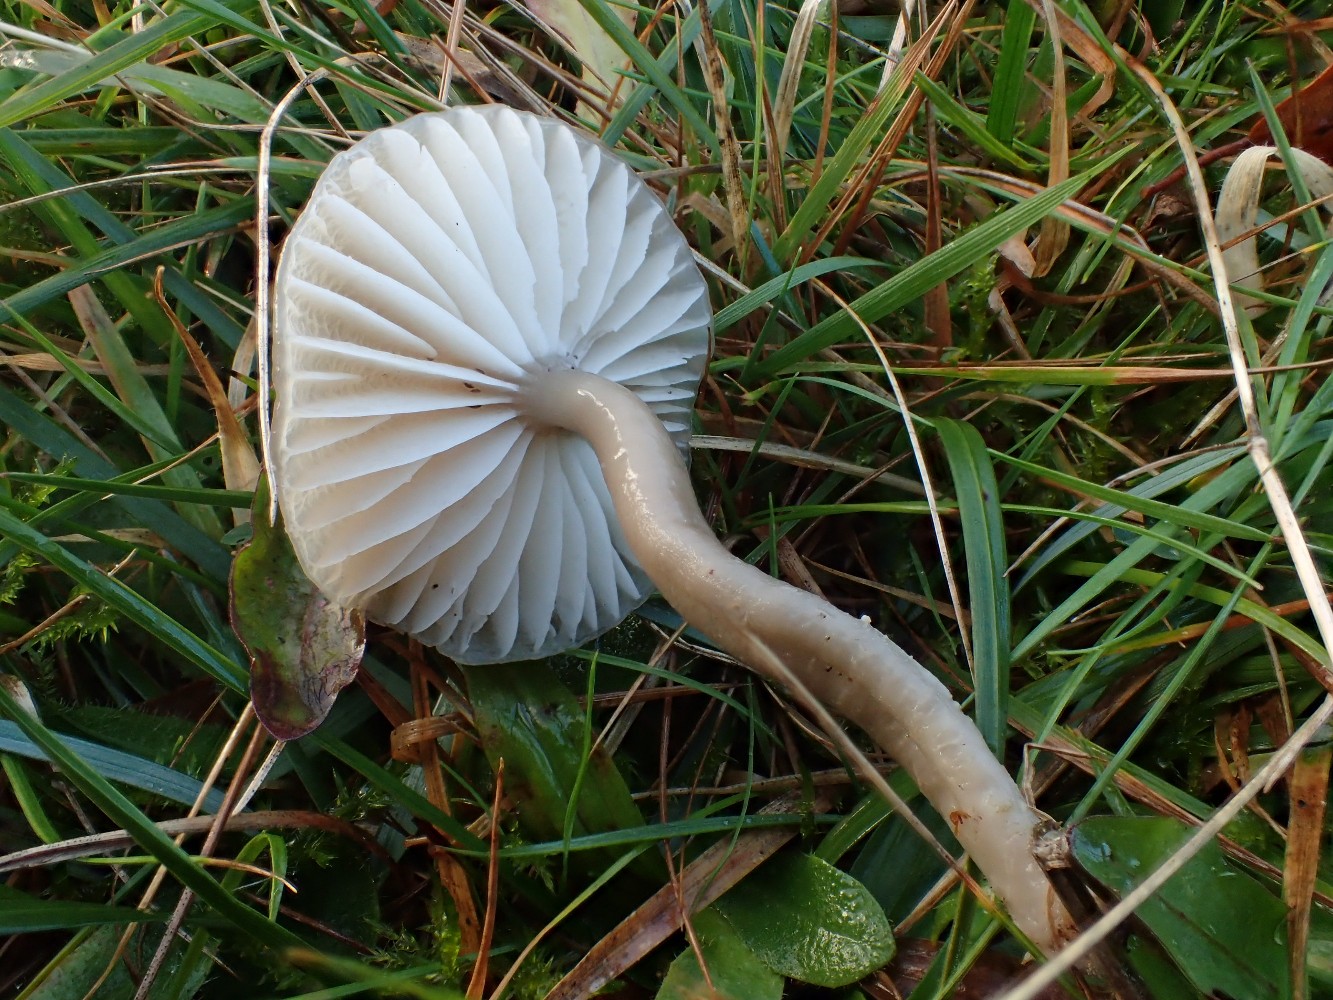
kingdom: Fungi
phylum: Basidiomycota
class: Agaricomycetes
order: Agaricales
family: Hygrophoraceae
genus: Gliophorus
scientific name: Gliophorus irrigatus
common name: slimet vokshat
